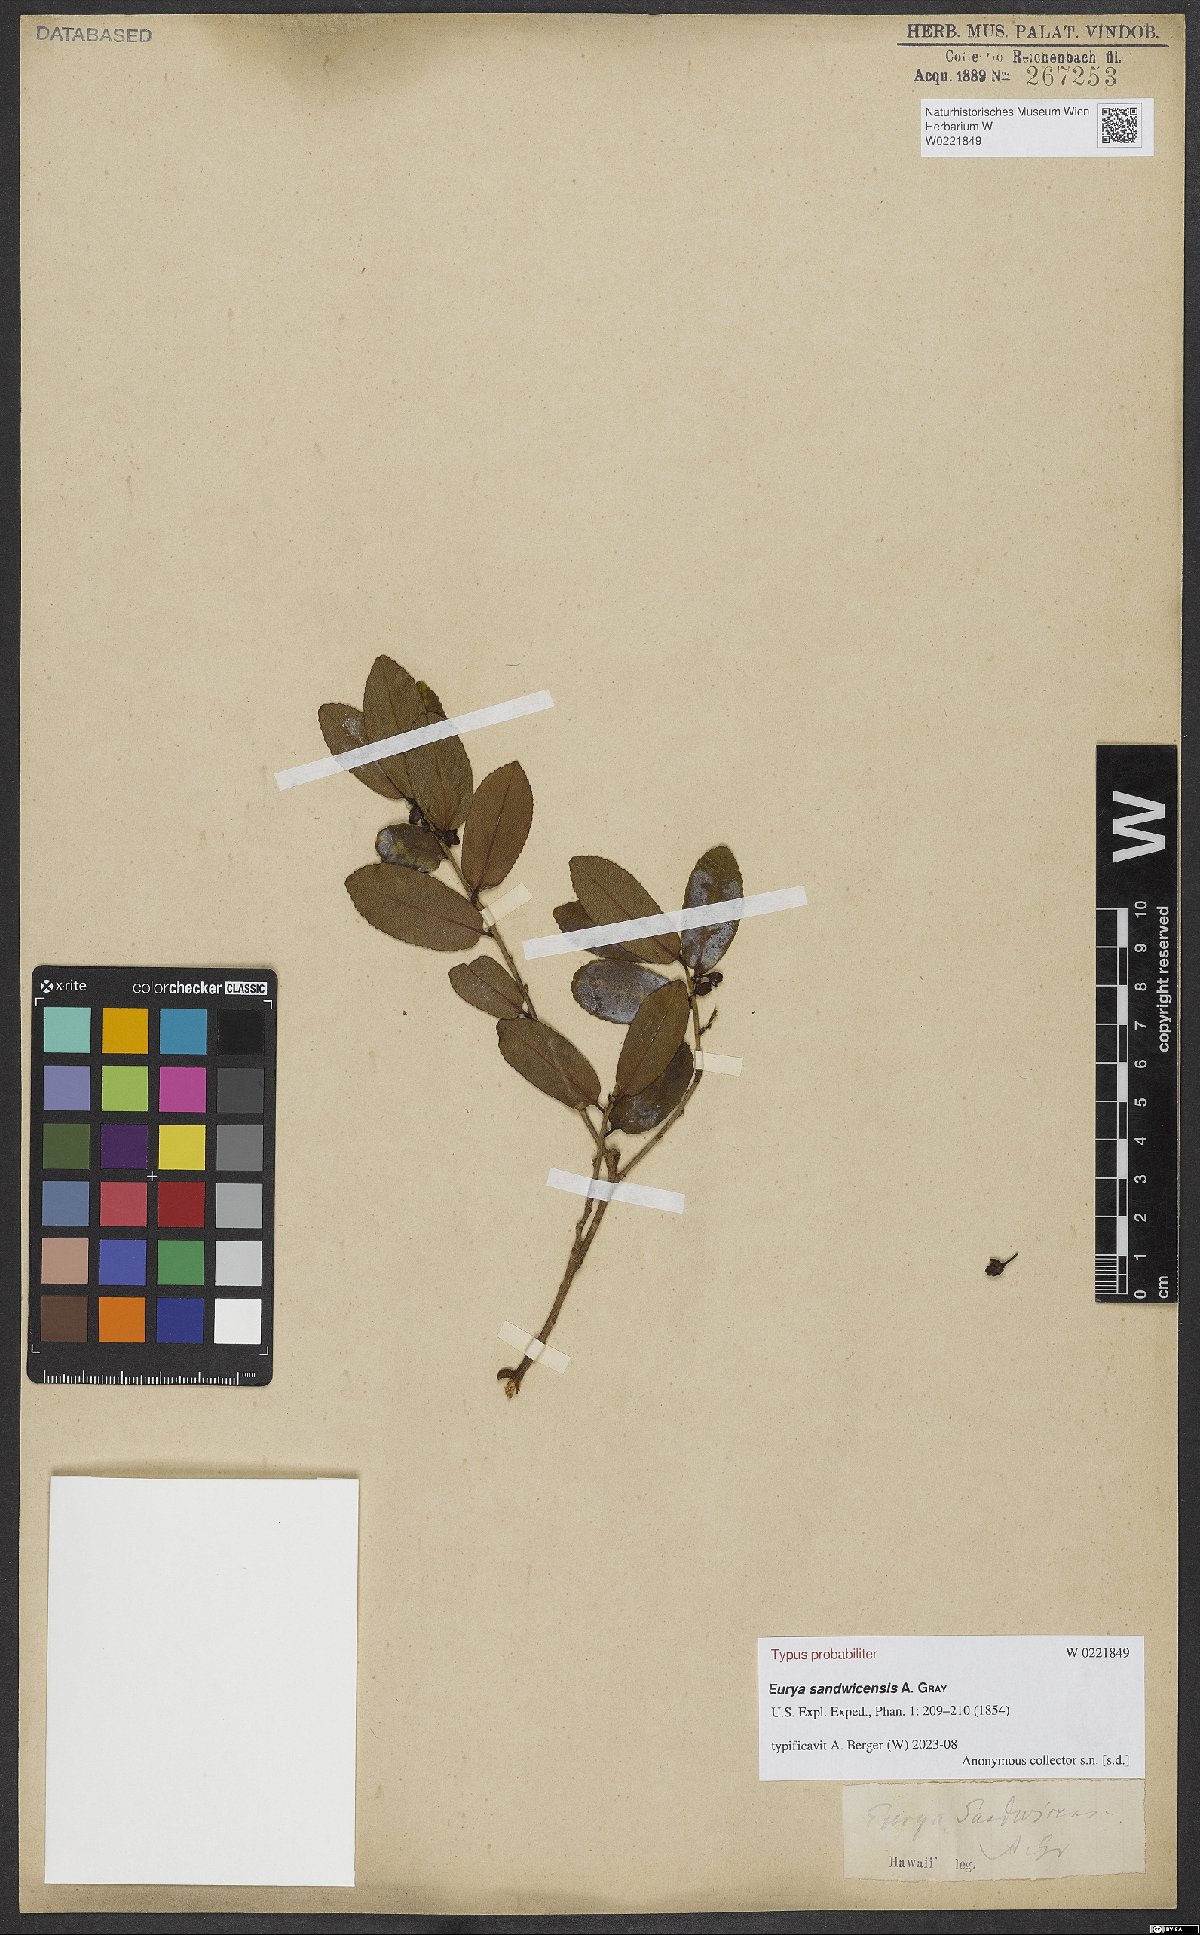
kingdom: Plantae
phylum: Tracheophyta
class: Magnoliopsida
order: Ericales
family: Pentaphylacaceae
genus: Eurya
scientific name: Eurya sandwicensis
